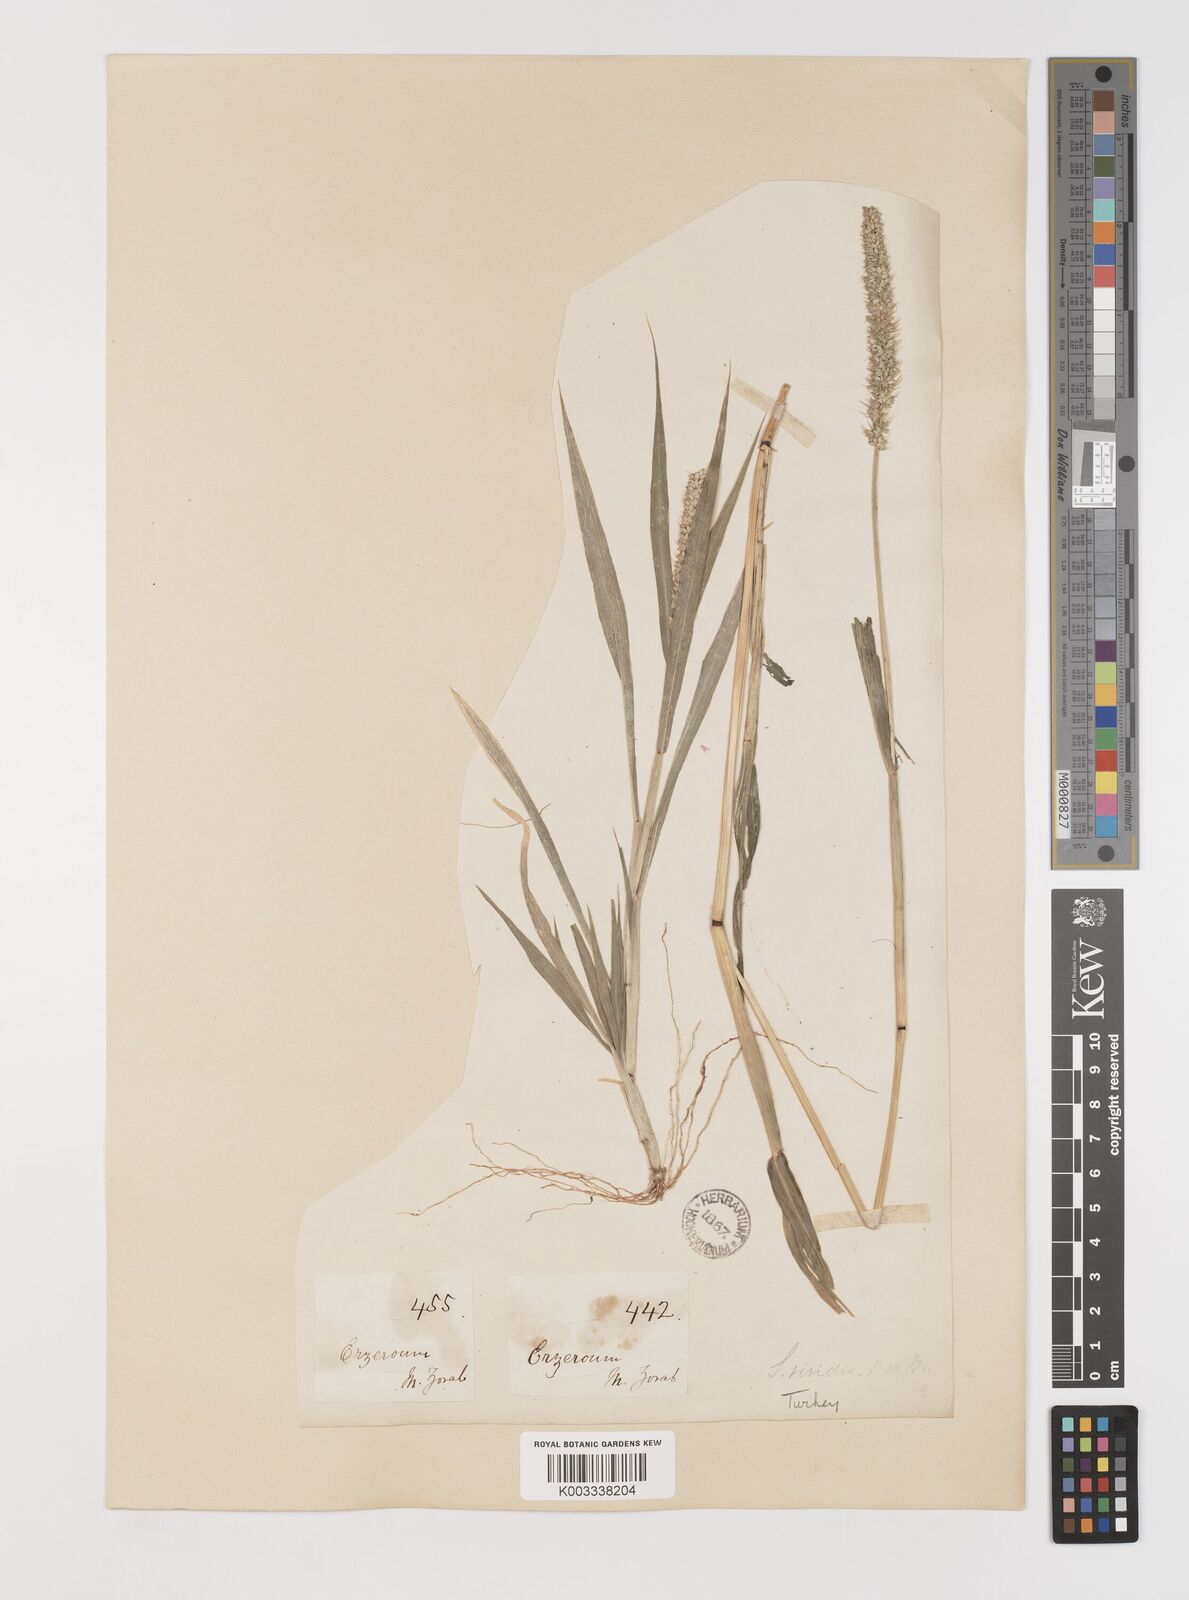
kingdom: Plantae
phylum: Tracheophyta
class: Liliopsida
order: Poales
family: Poaceae
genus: Setaria
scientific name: Setaria verticillata
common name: Hooked bristlegrass
